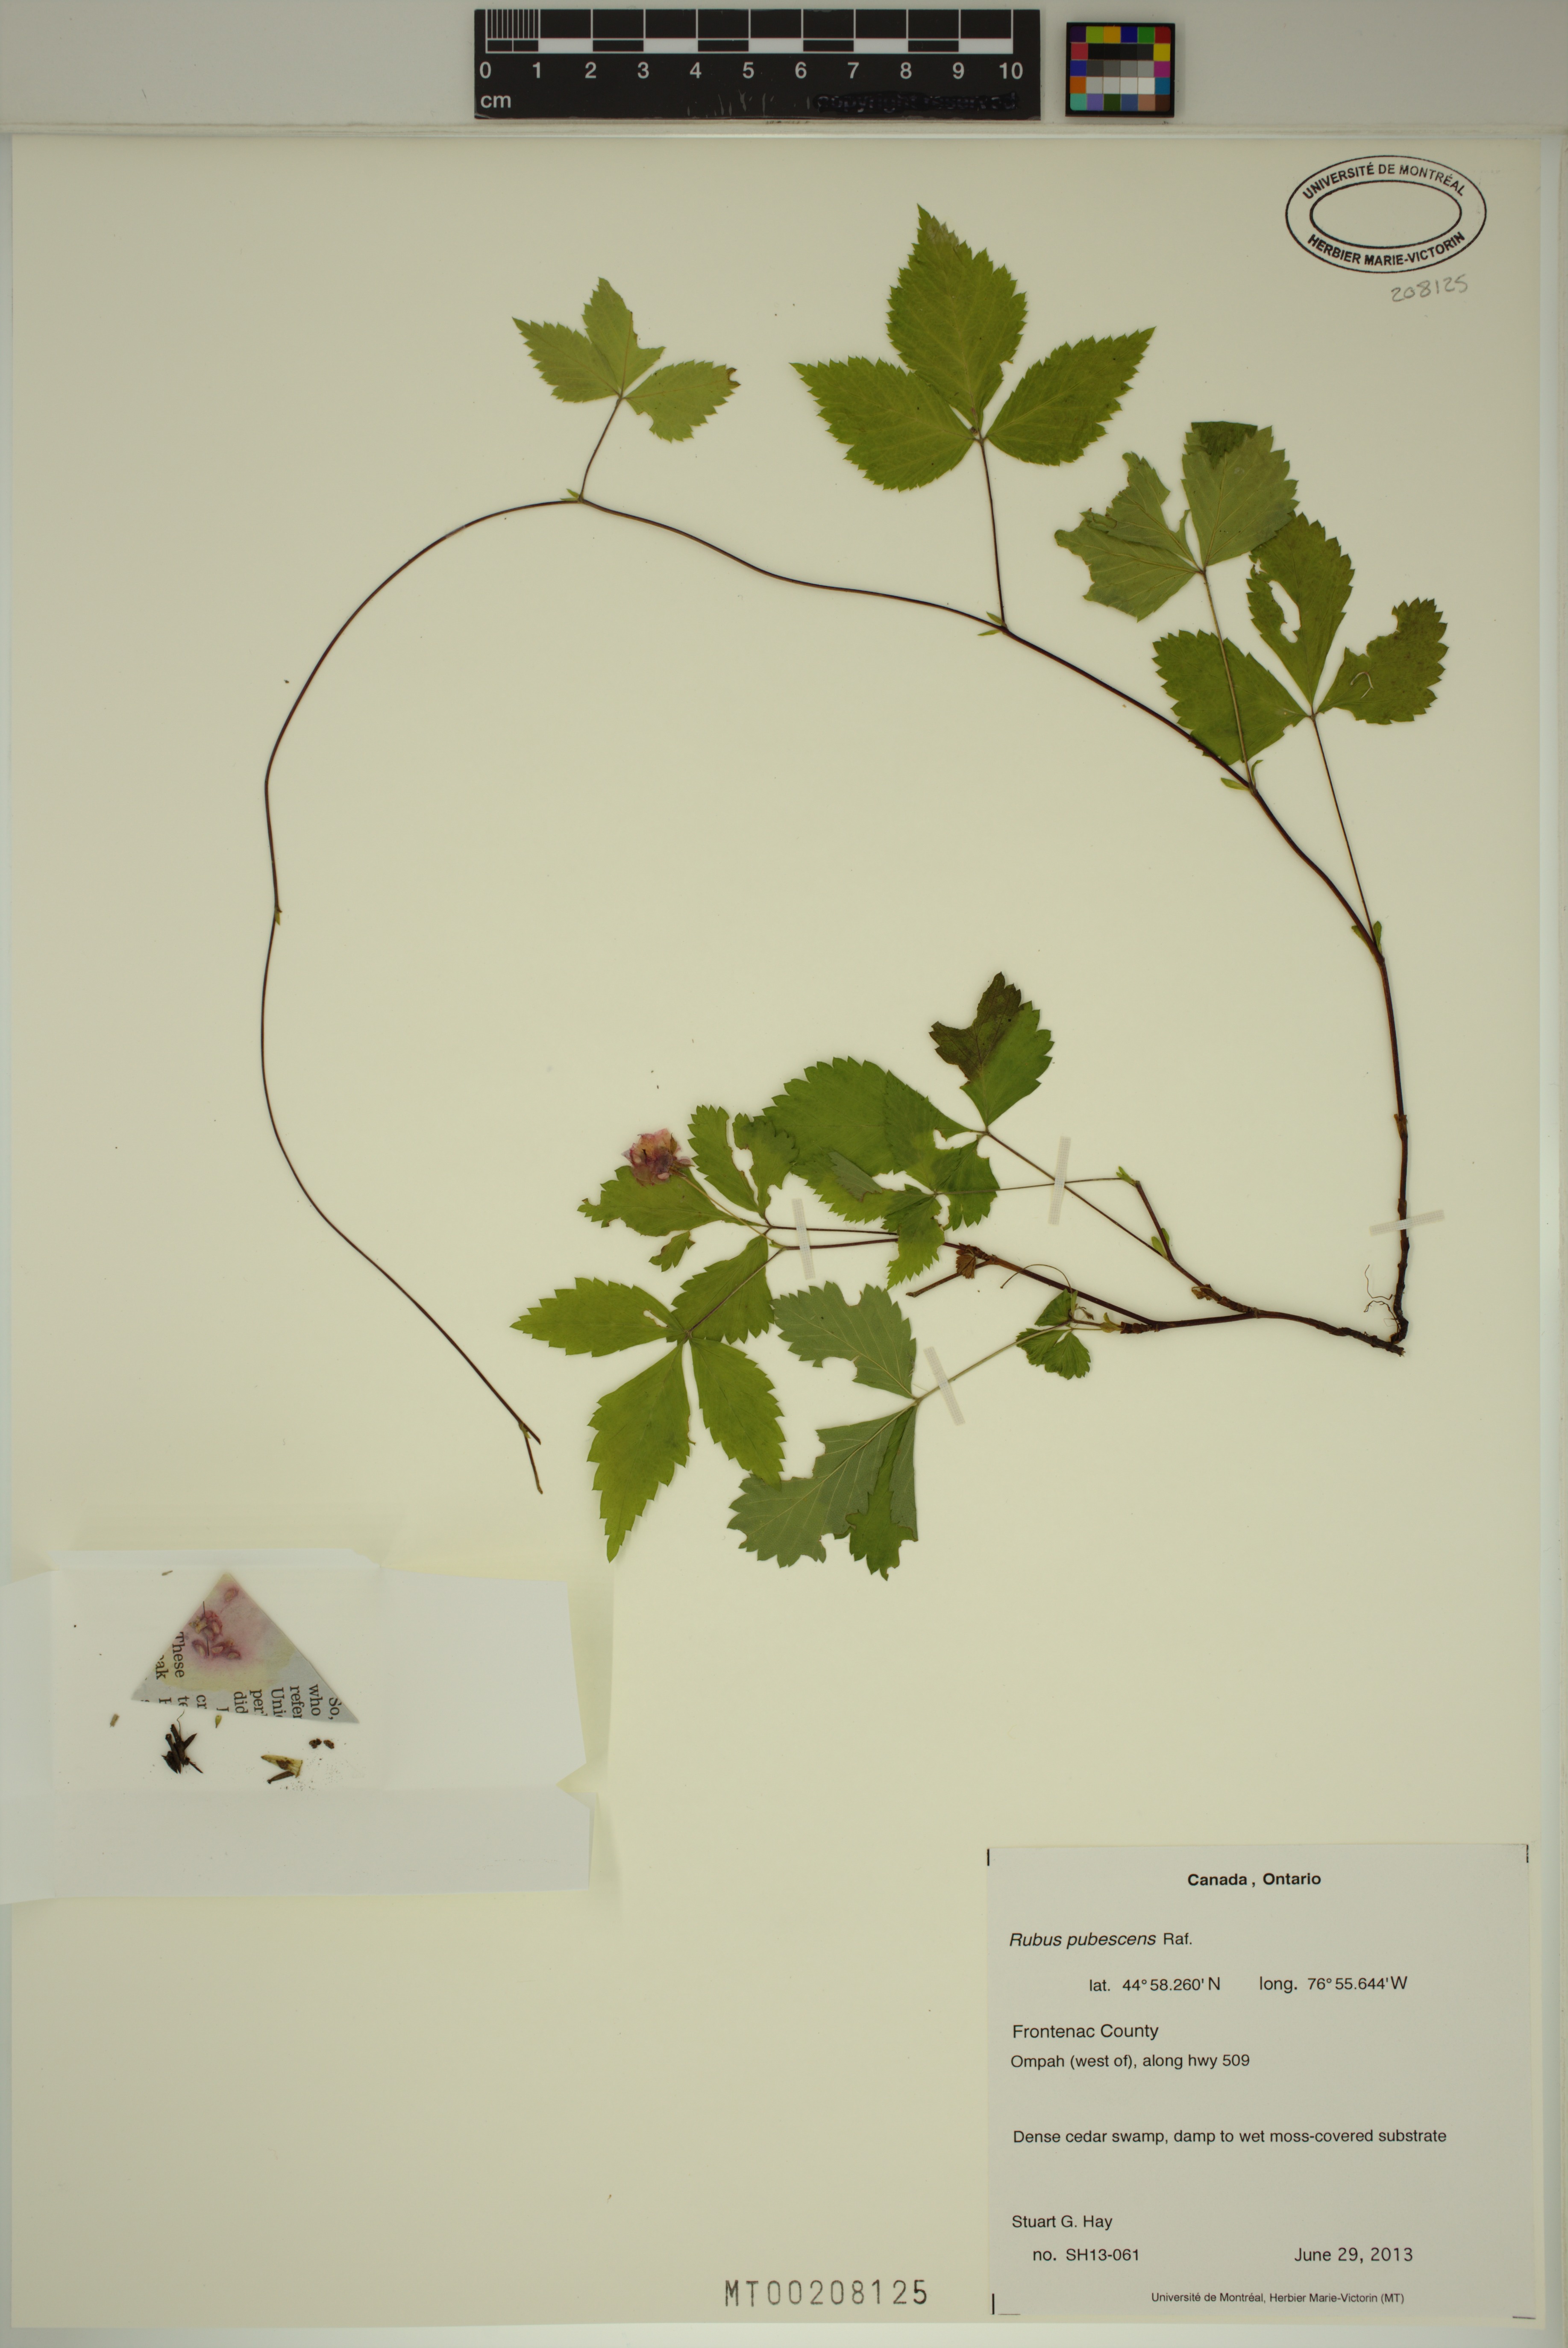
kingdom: Plantae
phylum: Tracheophyta
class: Magnoliopsida
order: Rosales
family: Rosaceae
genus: Rubus
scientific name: Rubus pubescens
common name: Dwarf raspberry
